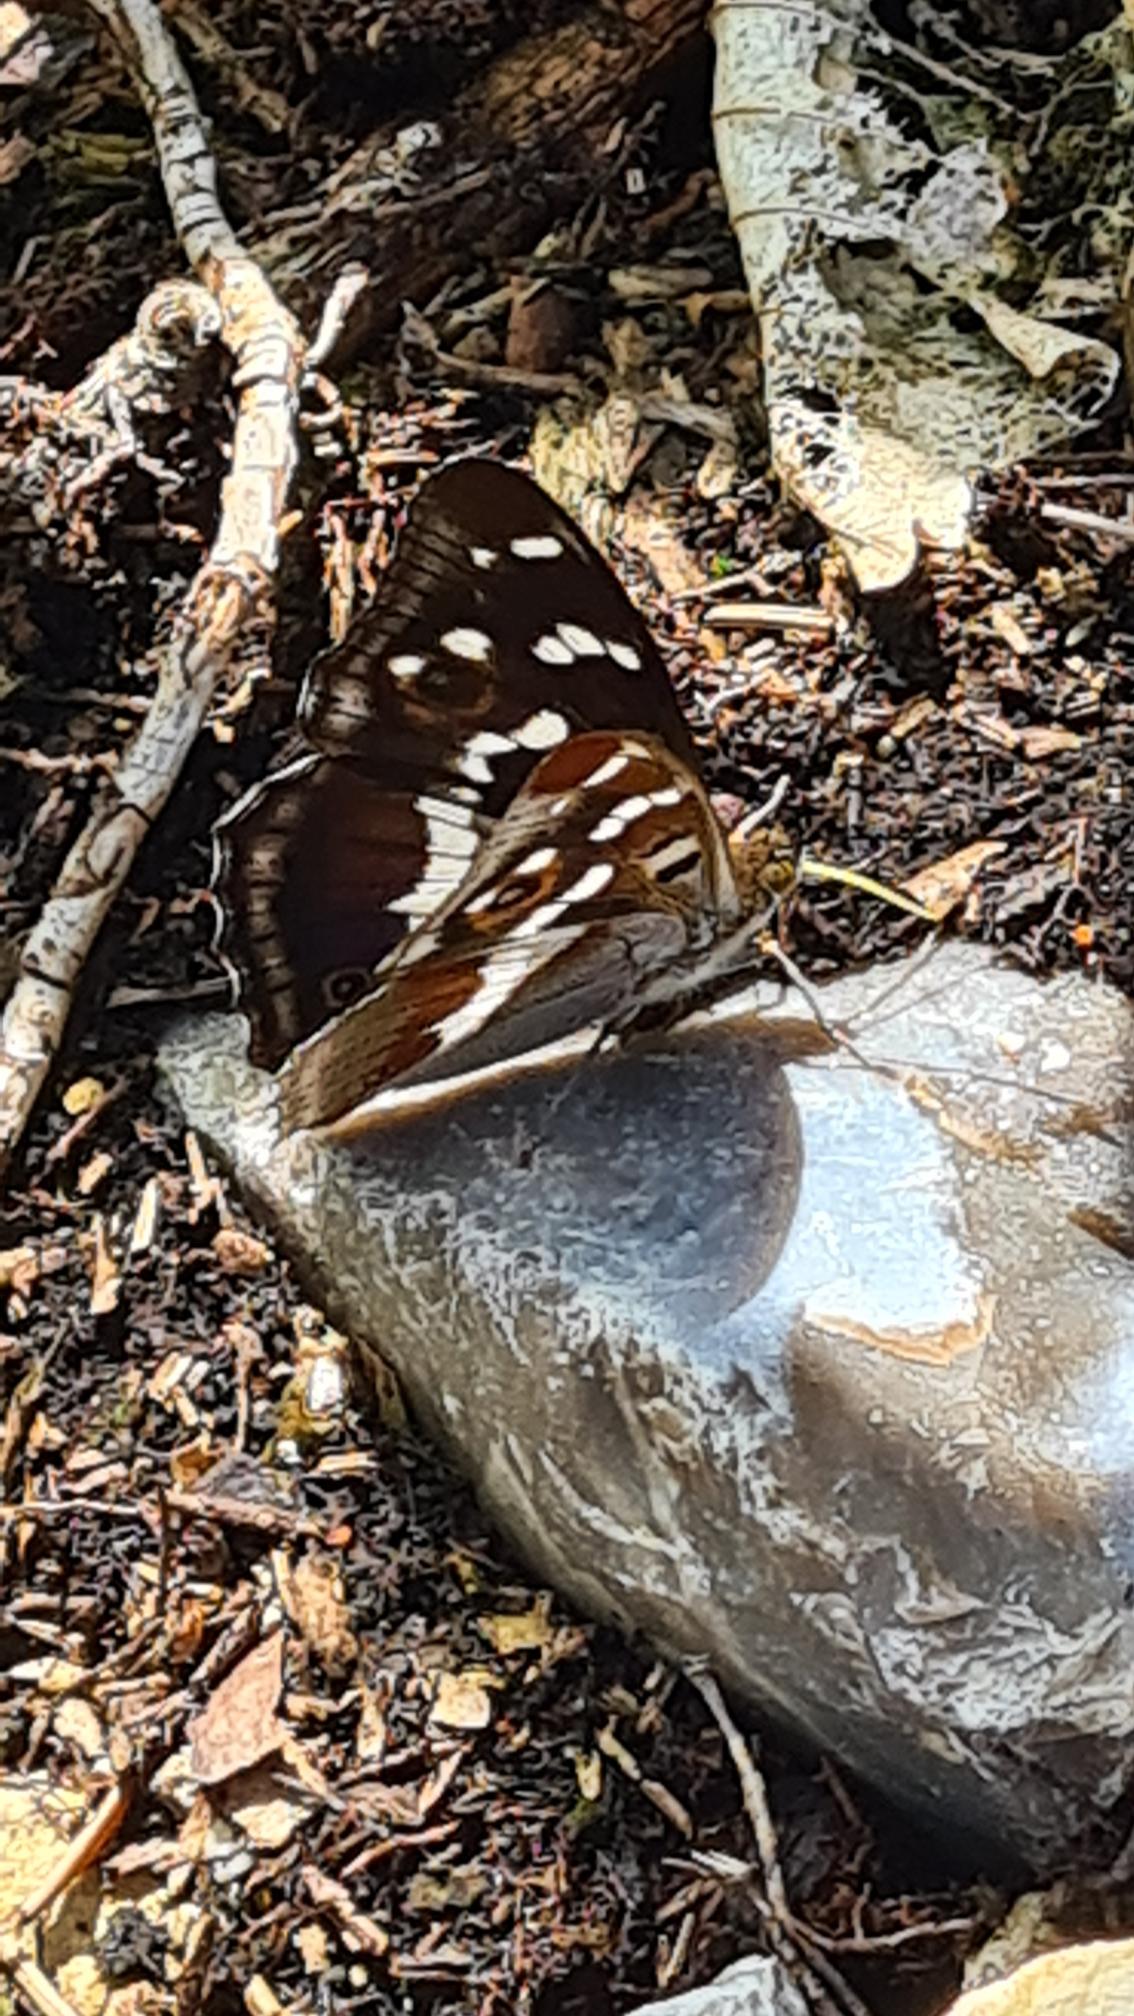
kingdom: Animalia
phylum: Arthropoda
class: Insecta
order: Lepidoptera
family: Nymphalidae
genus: Apatura
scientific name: Apatura iris
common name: Iris
